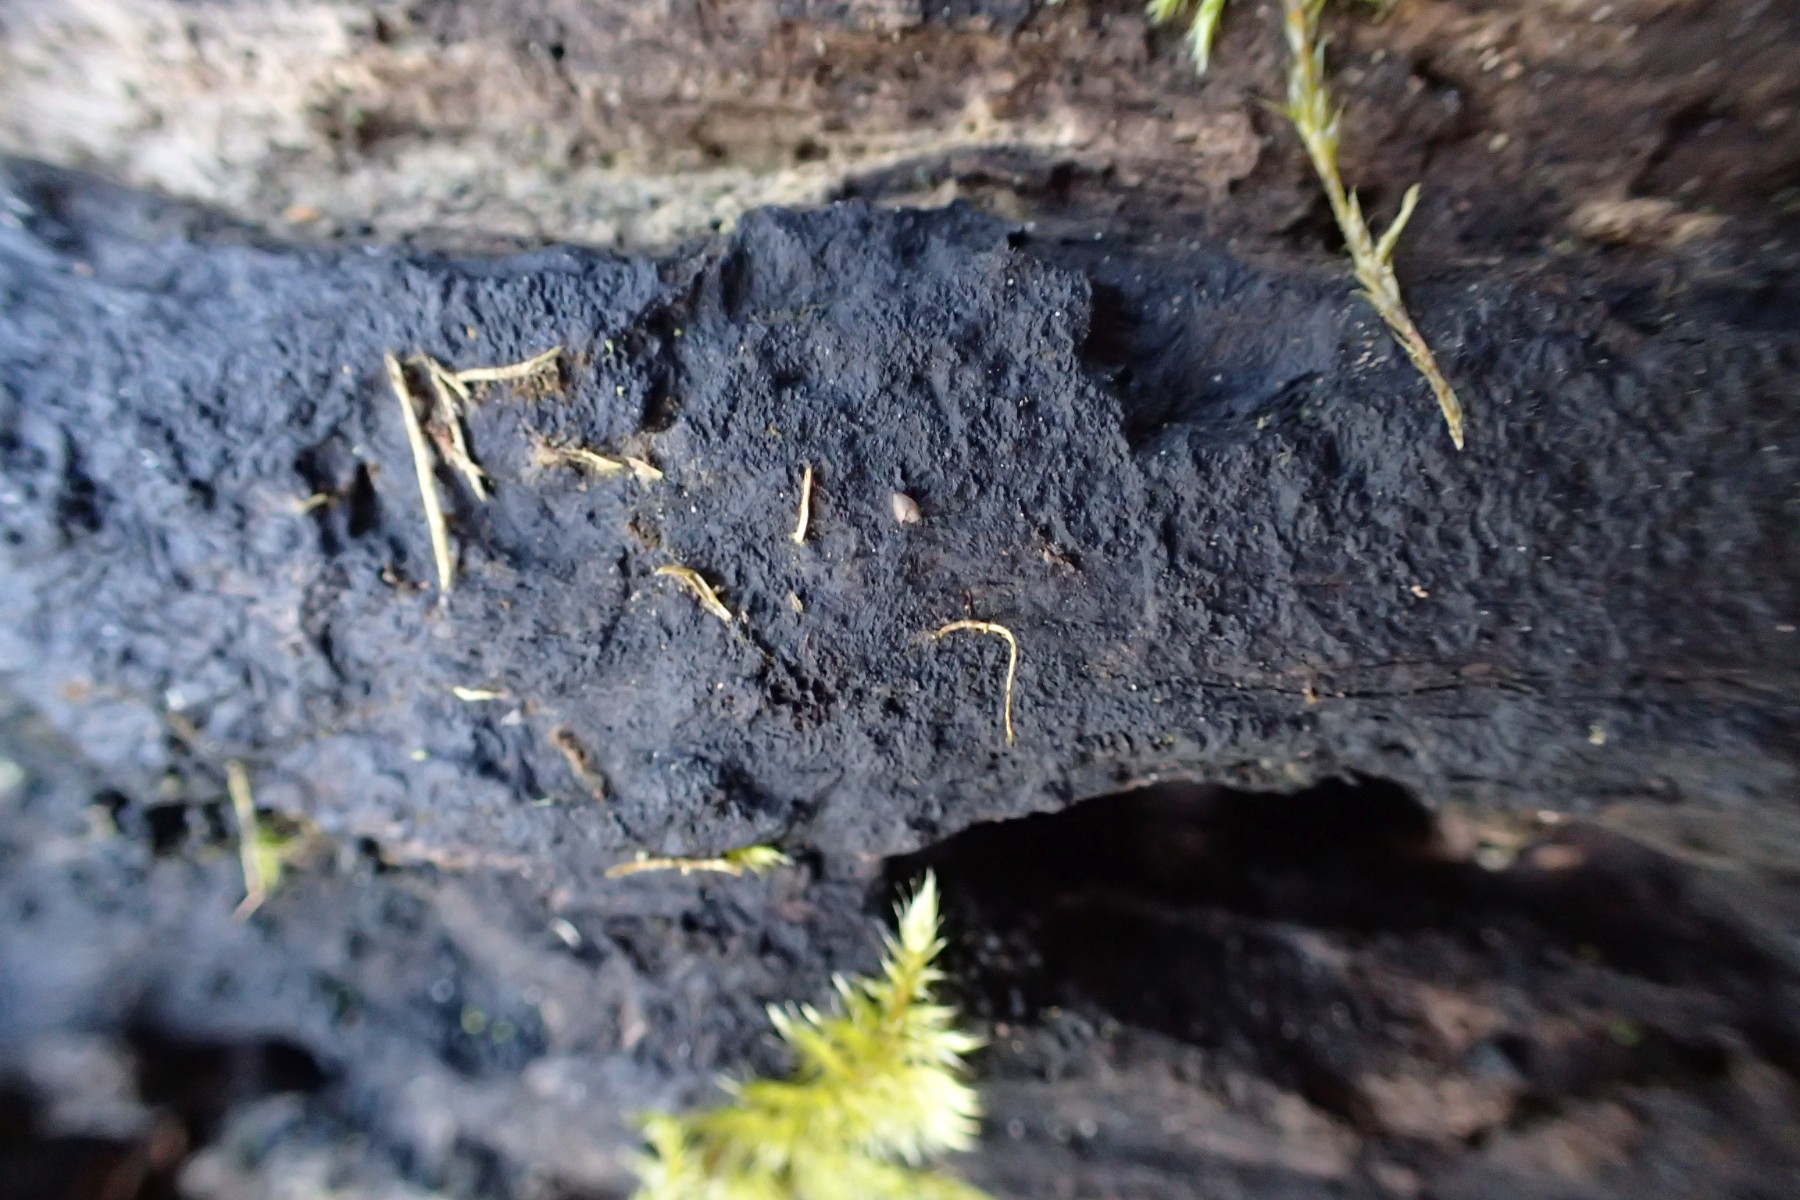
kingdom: Fungi
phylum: Ascomycota
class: Sordariomycetes
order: Xylariales
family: Xylariaceae
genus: Kretzschmaria
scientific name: Kretzschmaria deusta
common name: stor kulsvamp
